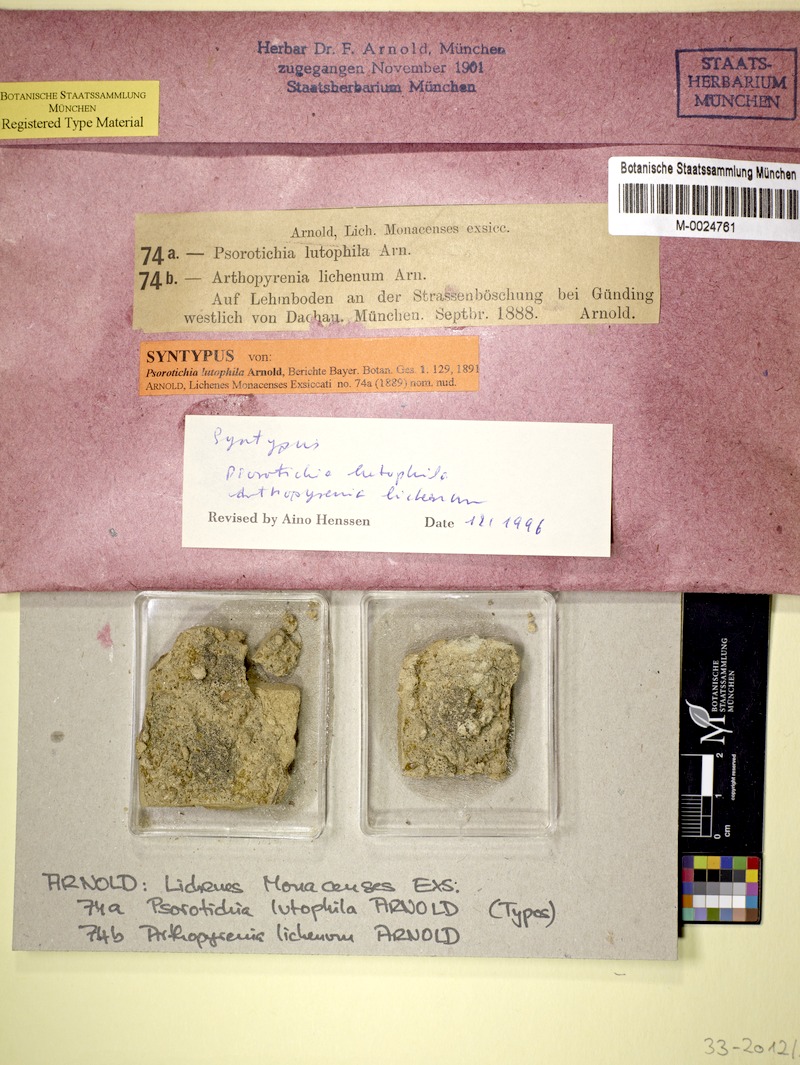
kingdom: Fungi
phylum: Ascomycota
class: Lichinomycetes
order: Lichinales
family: Lichinaceae
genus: Psorotichia
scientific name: Psorotichia lutophila
